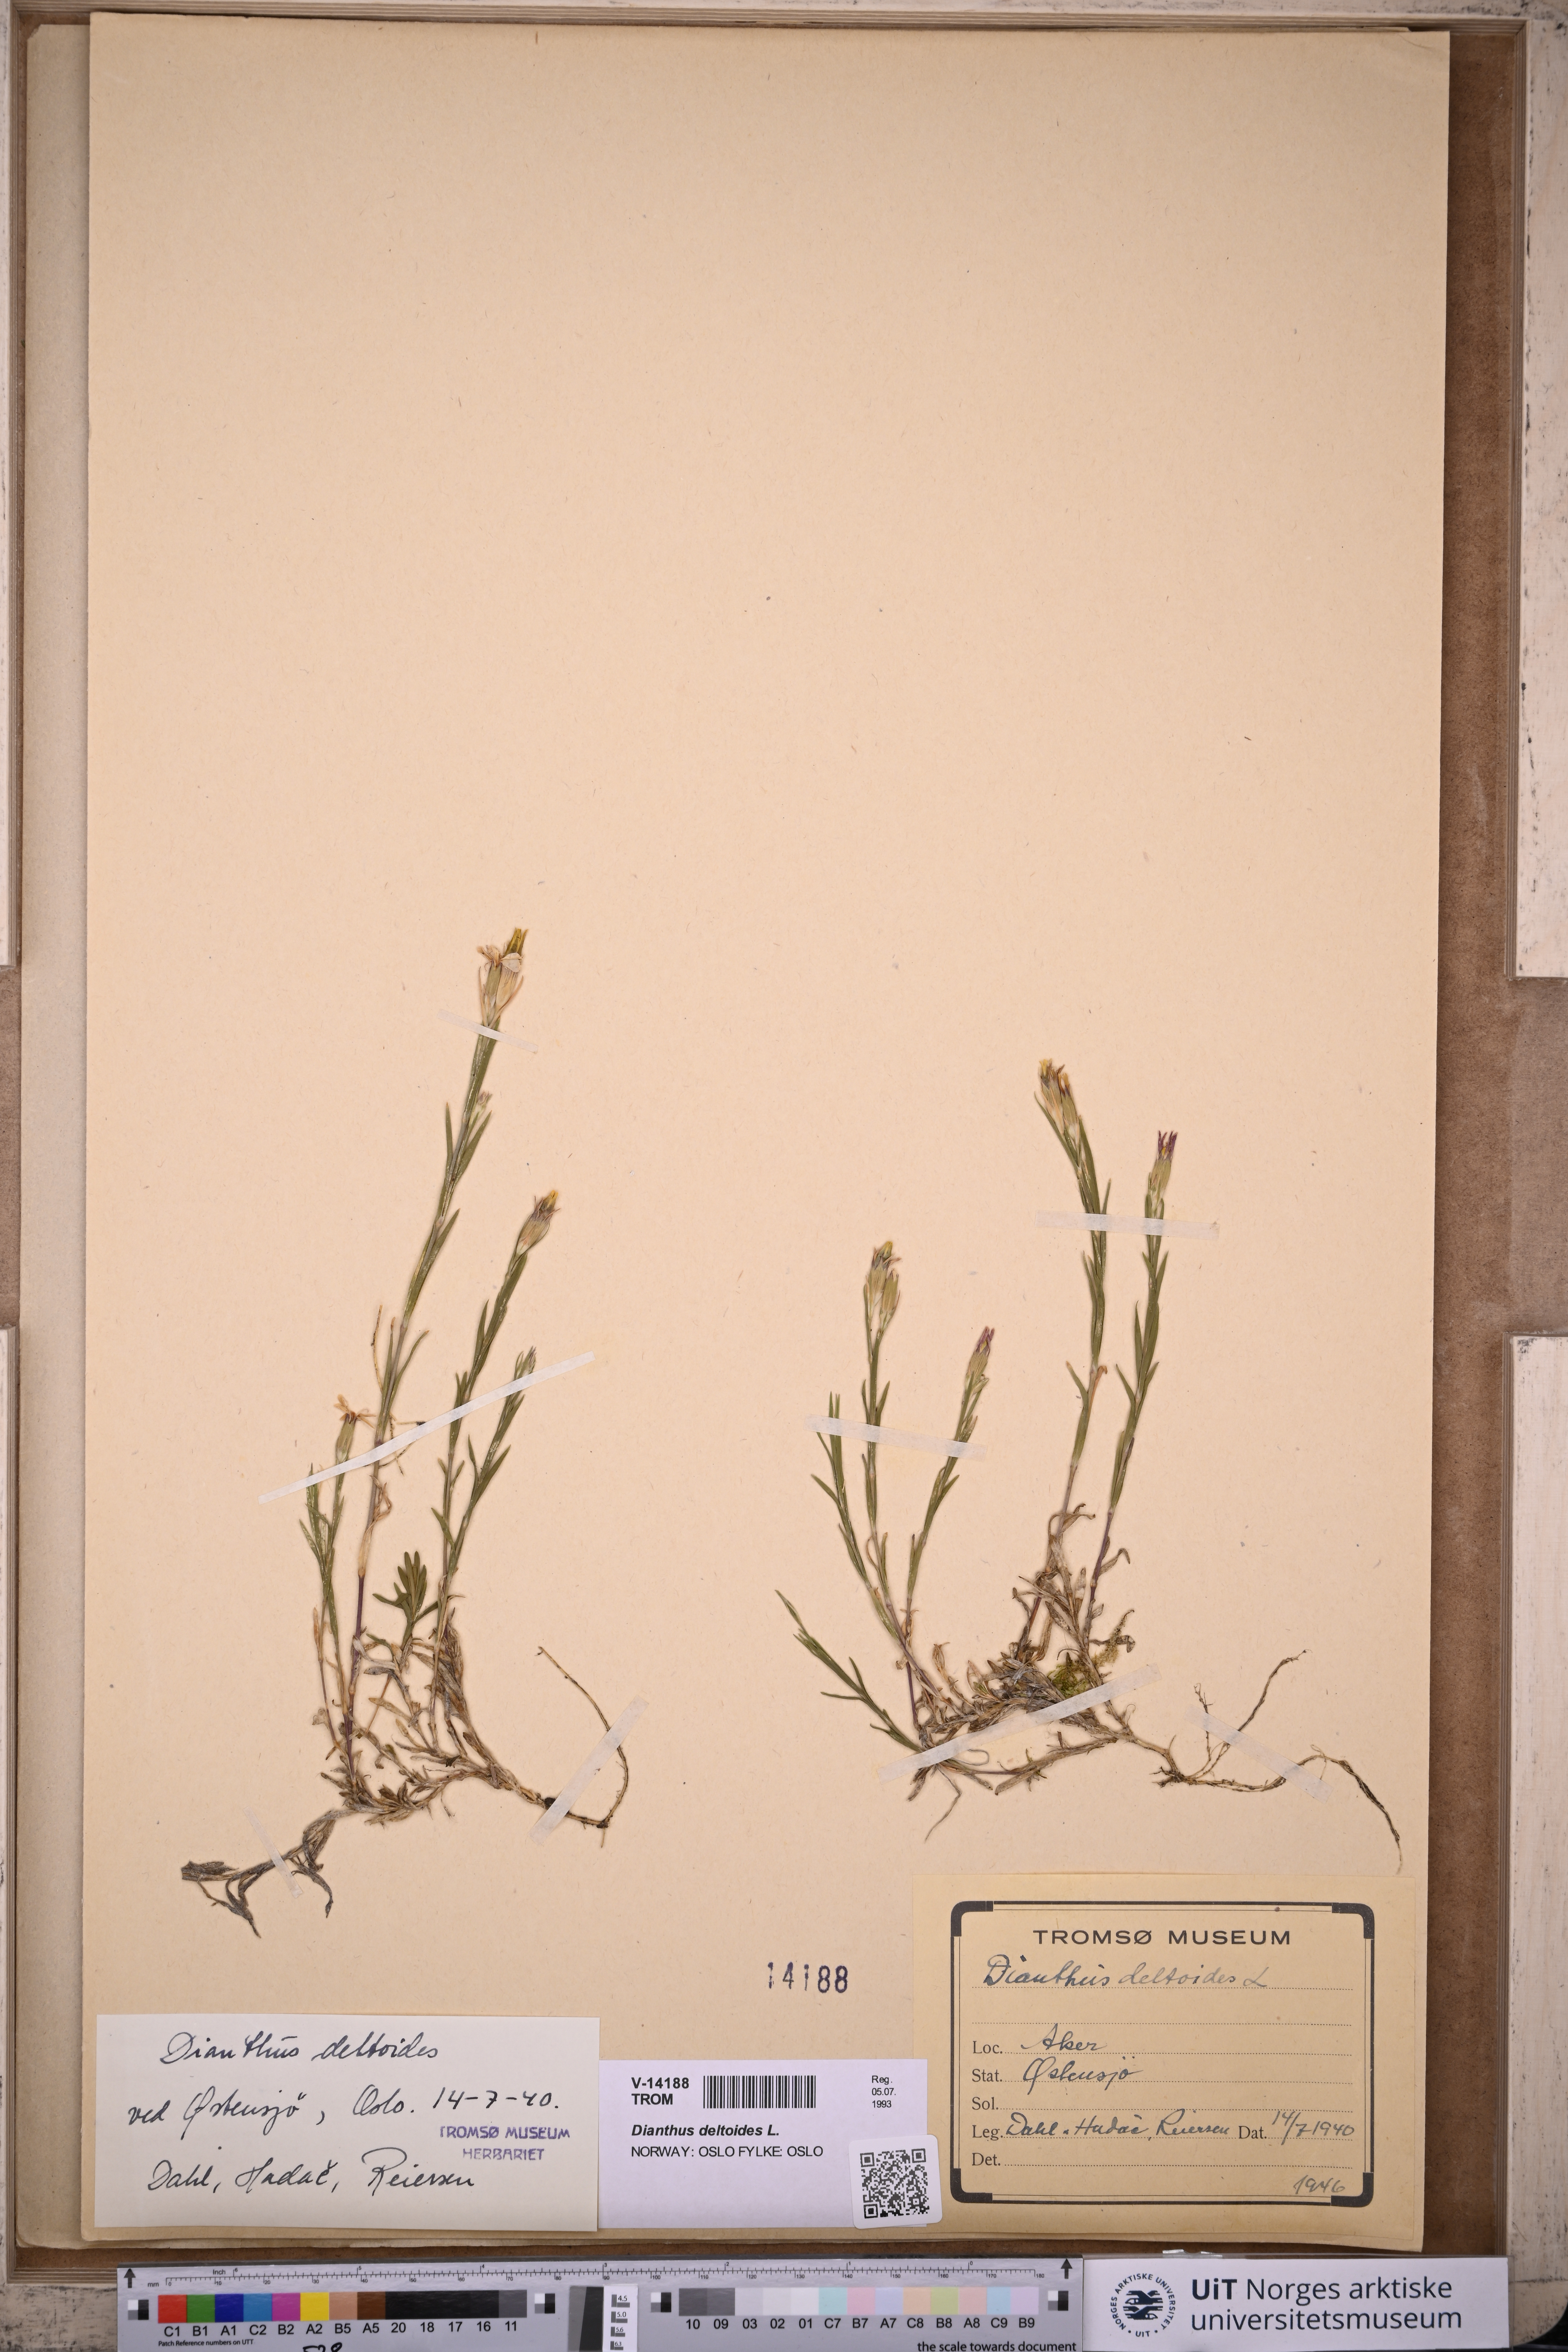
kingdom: Plantae
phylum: Tracheophyta
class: Magnoliopsida
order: Caryophyllales
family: Caryophyllaceae
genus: Dianthus
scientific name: Dianthus deltoides
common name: Maiden pink
